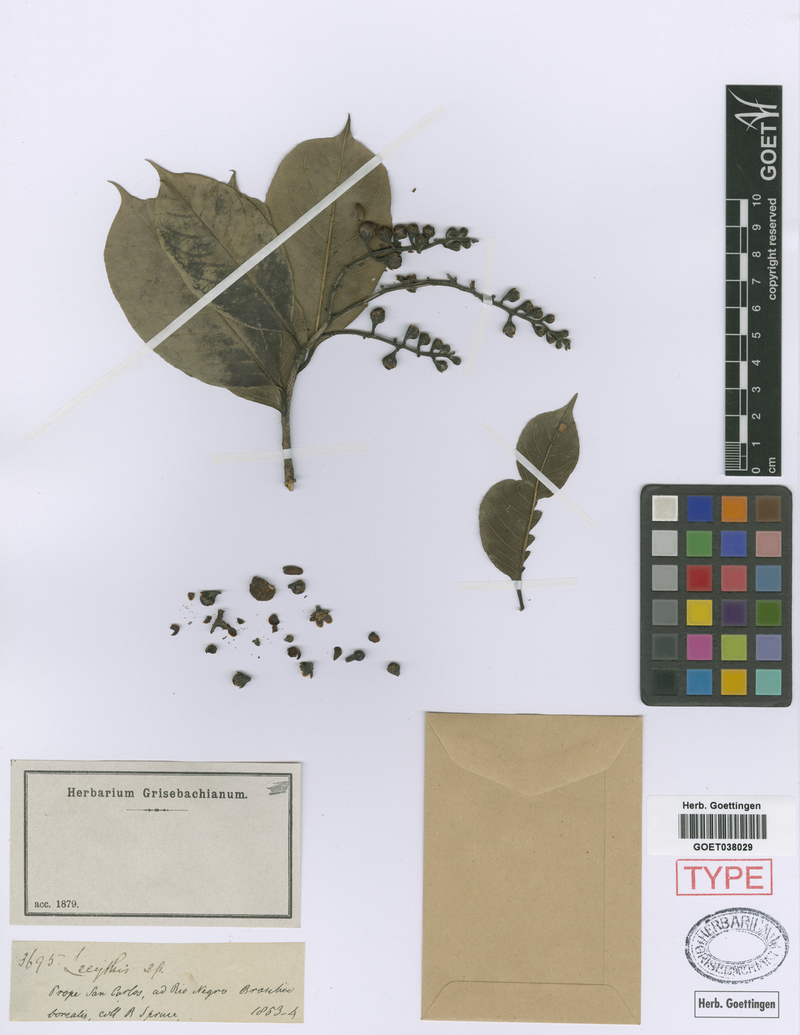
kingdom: Plantae
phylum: Tracheophyta
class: Magnoliopsida
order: Ericales
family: Lecythidaceae
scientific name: Lecythidaceae
